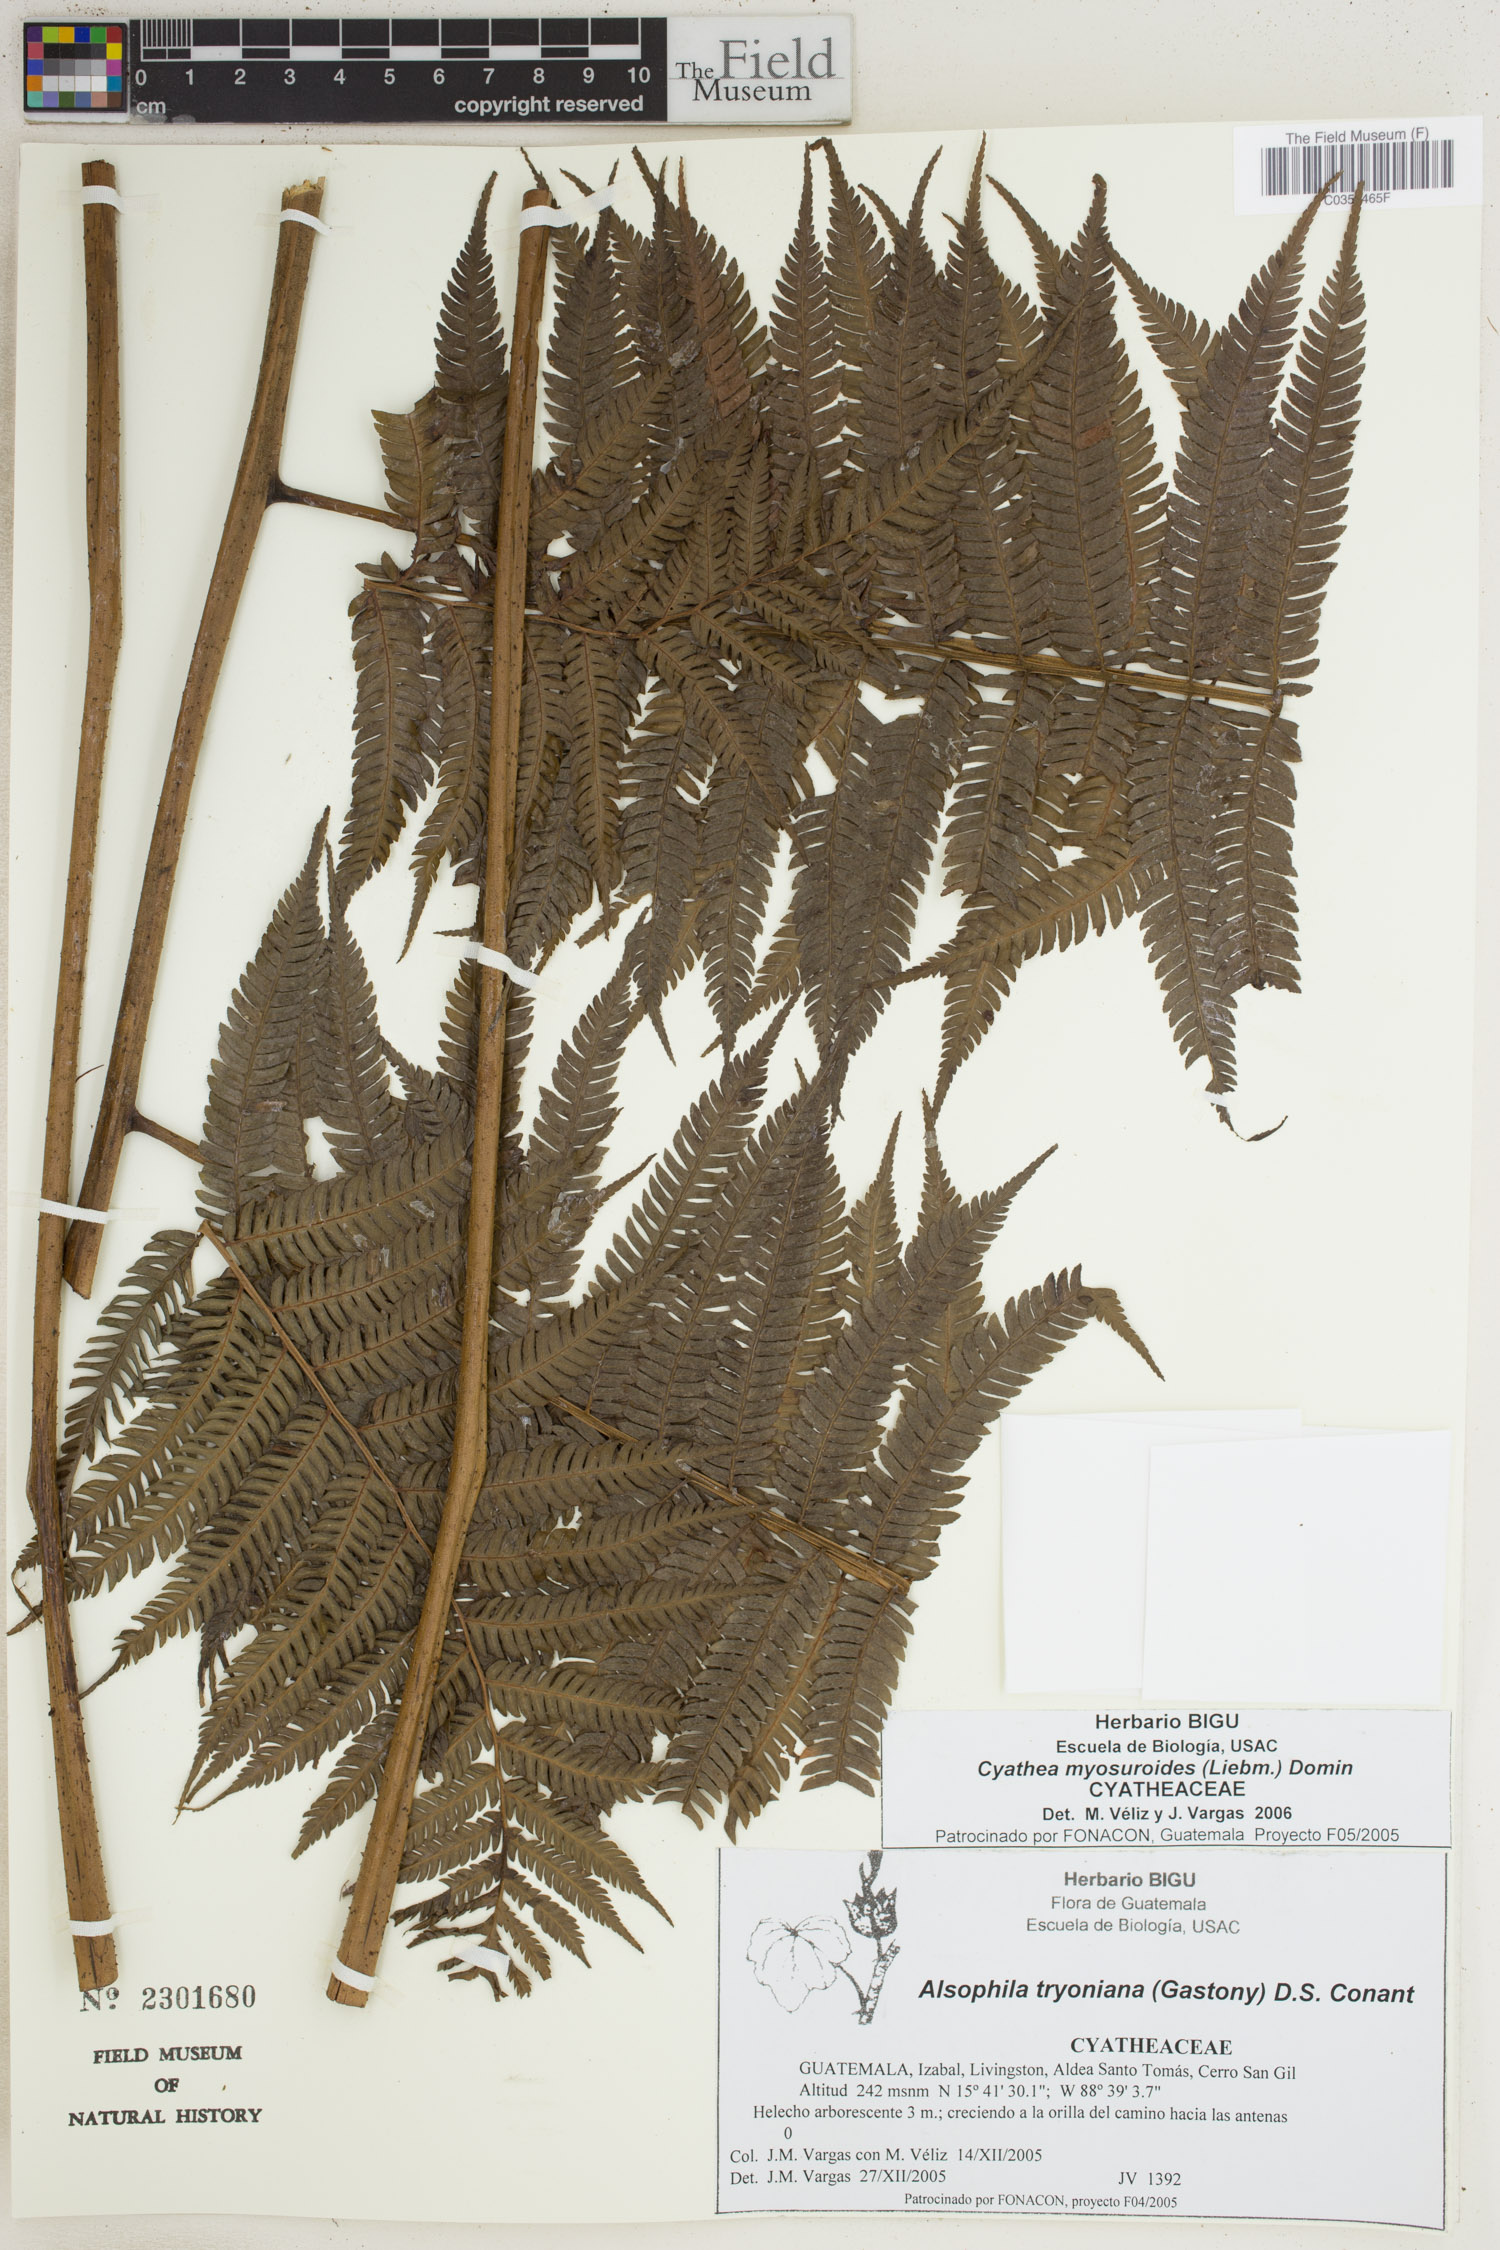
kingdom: Plantae
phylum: Tracheophyta
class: Polypodiopsida
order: Cyatheales
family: Cyatheaceae
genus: Sphaeropteris
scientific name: Sphaeropteris myosuroides
